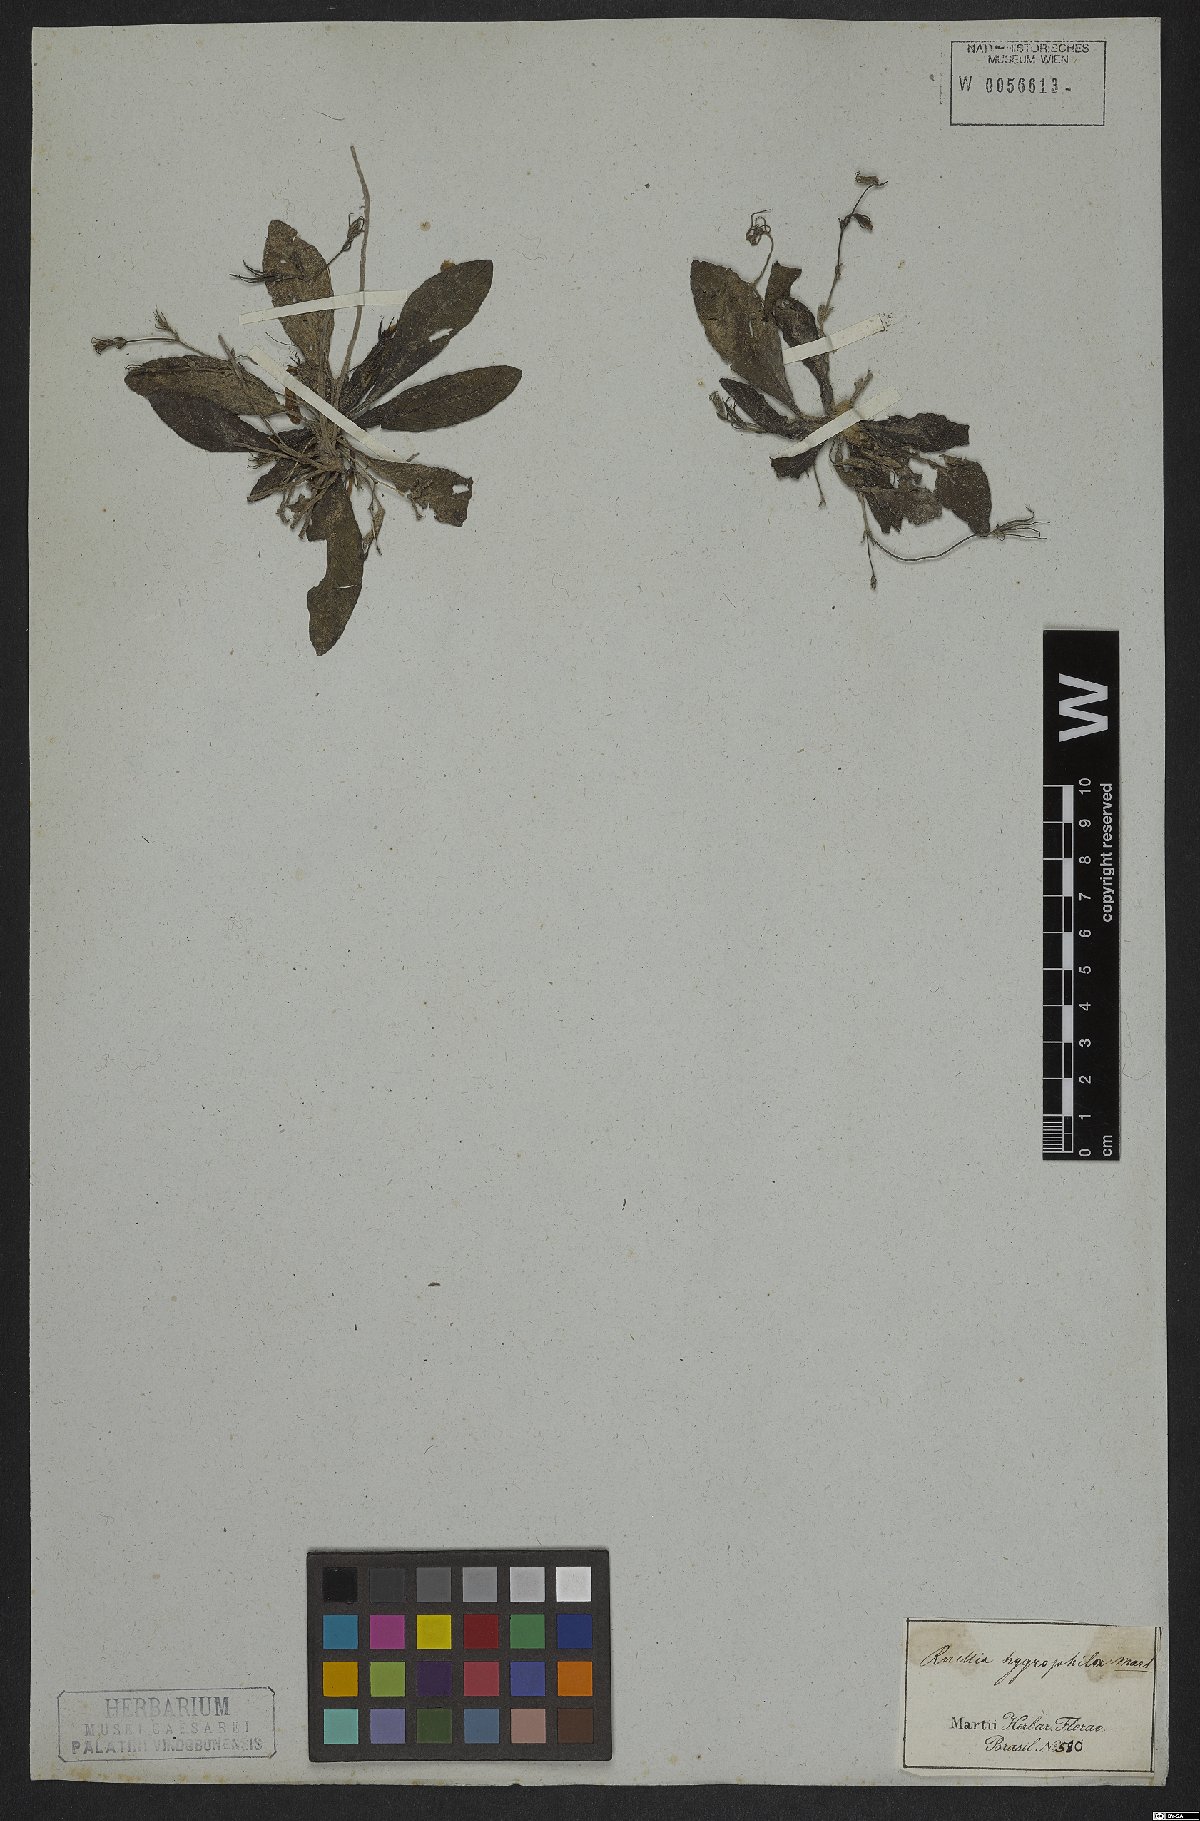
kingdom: Plantae
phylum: Tracheophyta
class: Magnoliopsida
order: Lamiales
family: Acanthaceae
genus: Ruellia
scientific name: Ruellia hygrophila
